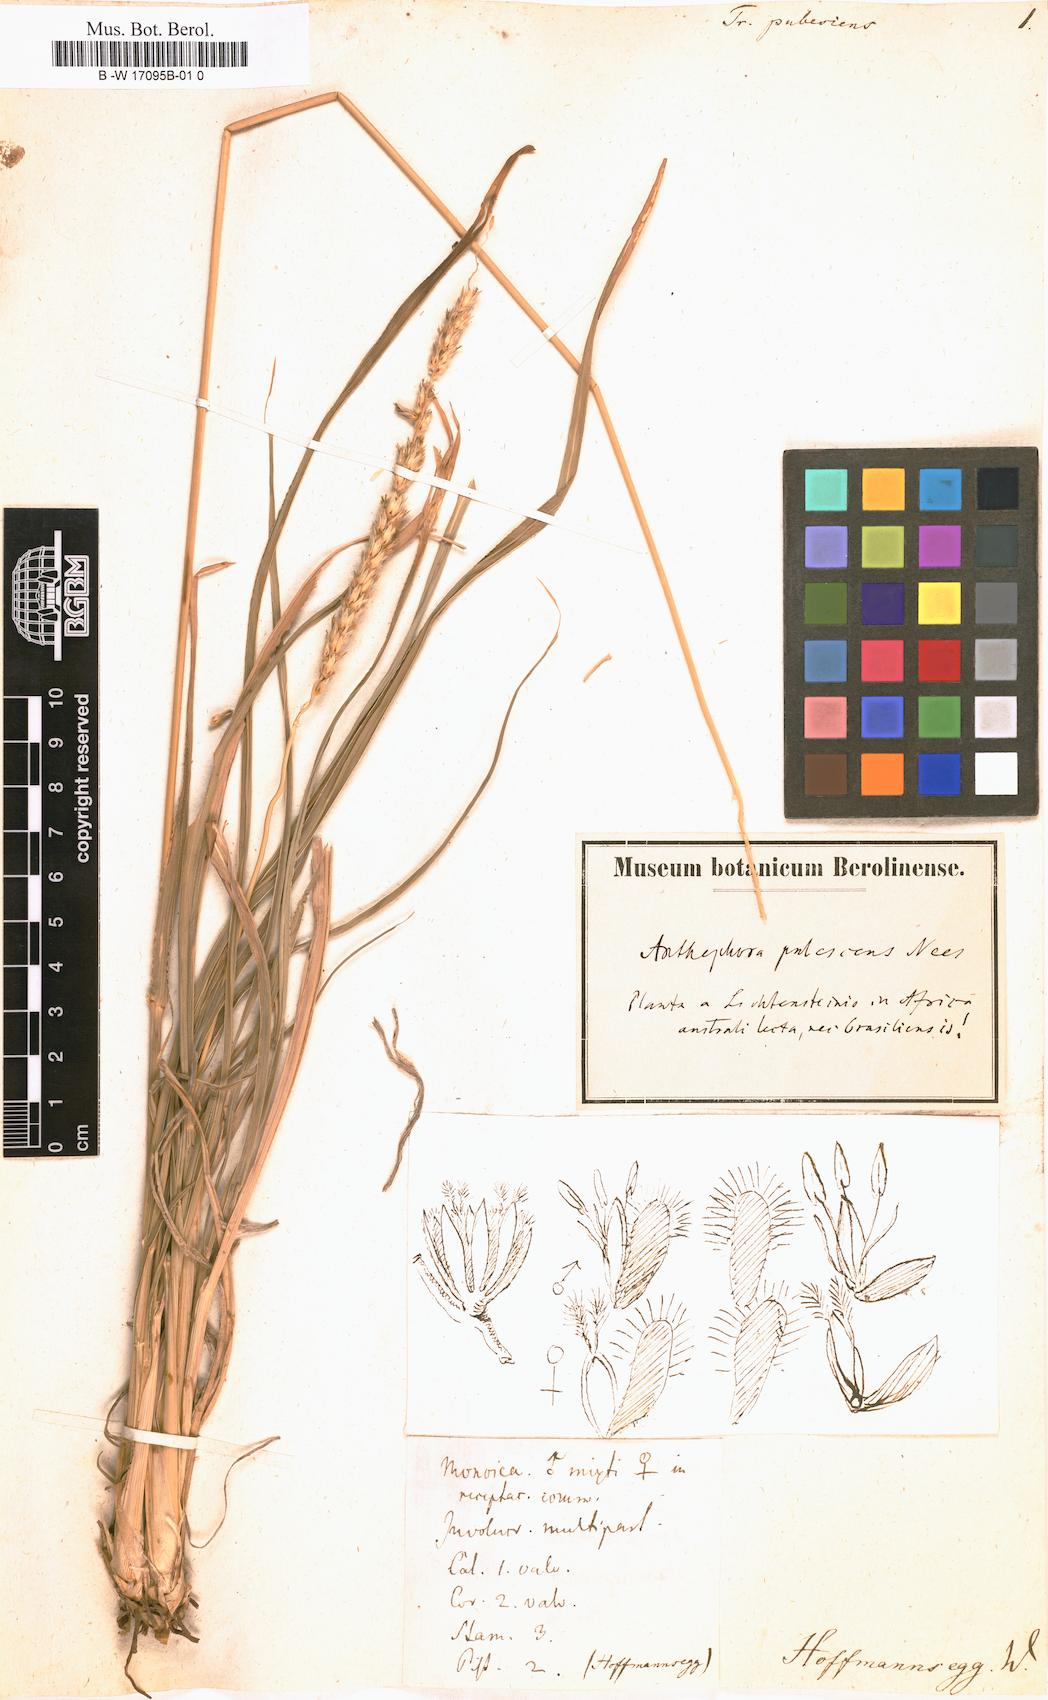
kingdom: Plantae
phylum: Tracheophyta
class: Liliopsida
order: Poales
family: Poaceae
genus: Tripsacum
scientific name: Tripsacum pubescens
